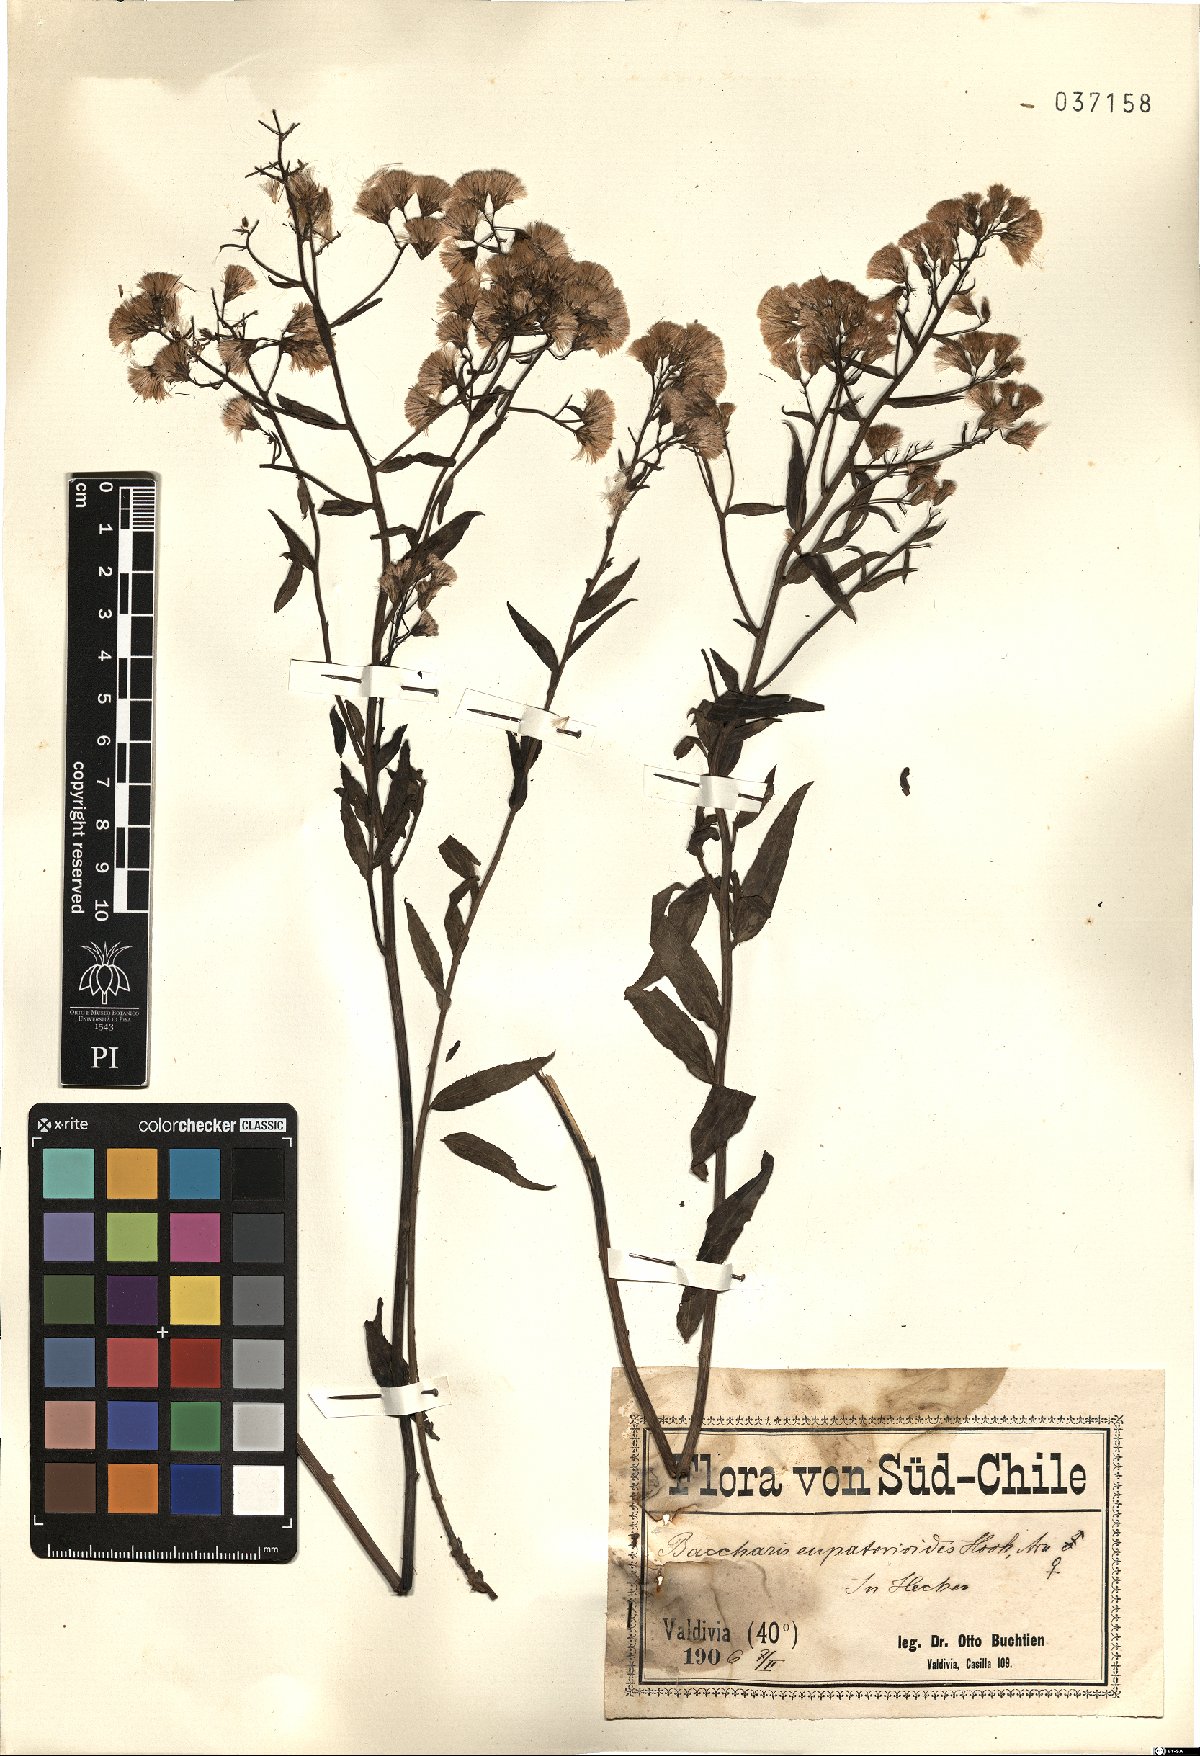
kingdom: Plantae
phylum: Tracheophyta
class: Magnoliopsida
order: Asterales
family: Asteraceae
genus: Baccharis
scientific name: Baccharis racemosa
